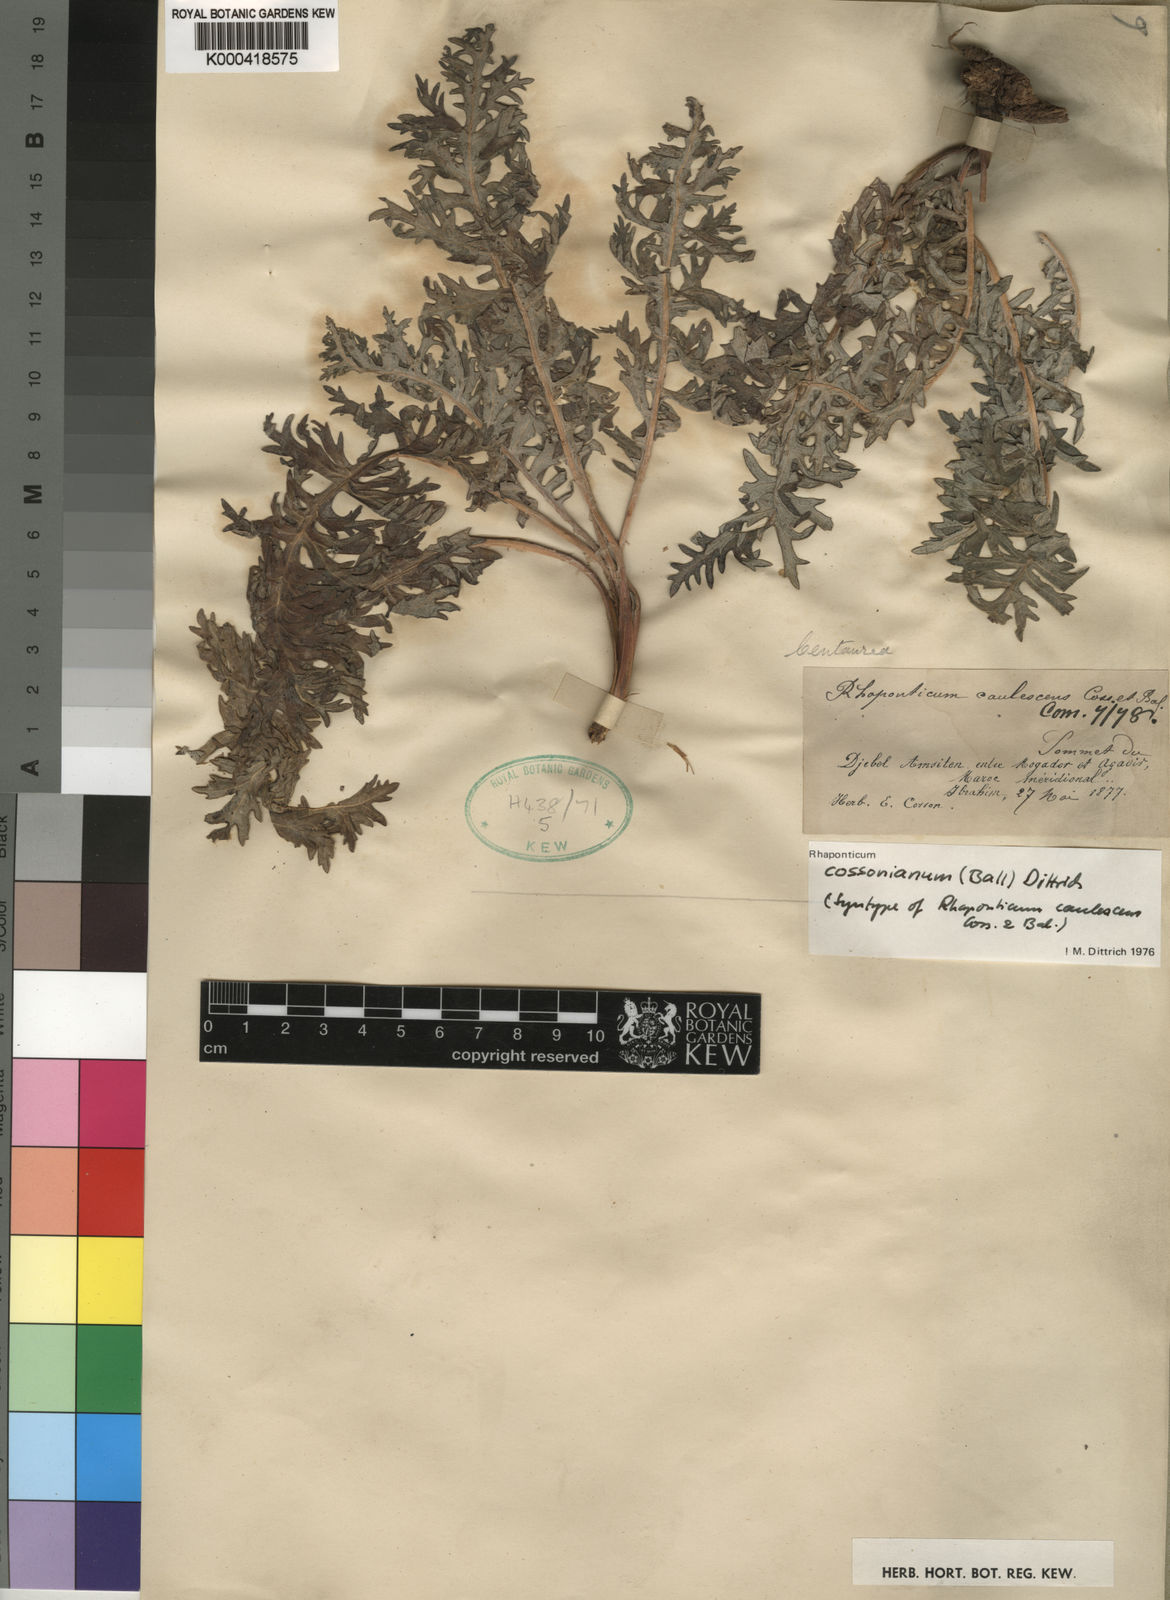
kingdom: Plantae
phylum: Tracheophyta
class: Magnoliopsida
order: Asterales
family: Asteraceae
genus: Leuzea
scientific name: Leuzea caulescens
